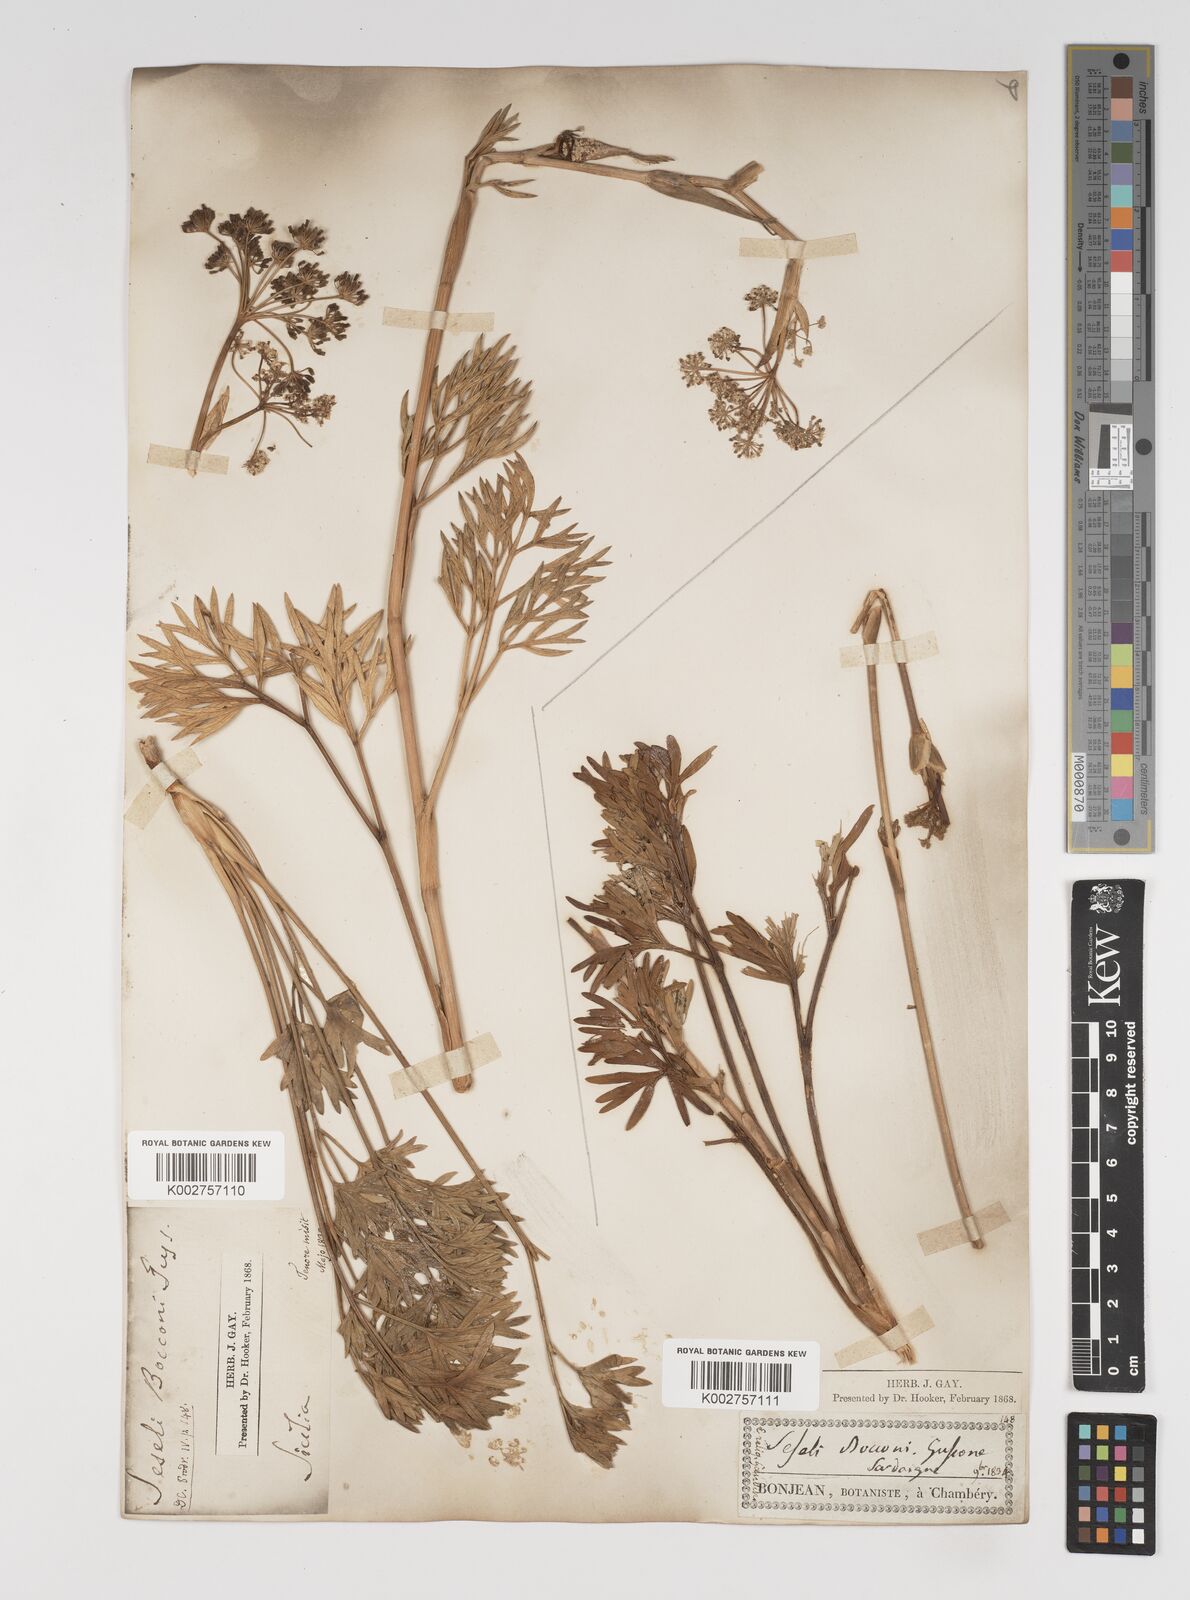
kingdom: Plantae
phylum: Tracheophyta
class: Magnoliopsida
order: Apiales
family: Apiaceae
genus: Seseli
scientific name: Seseli bocconei
